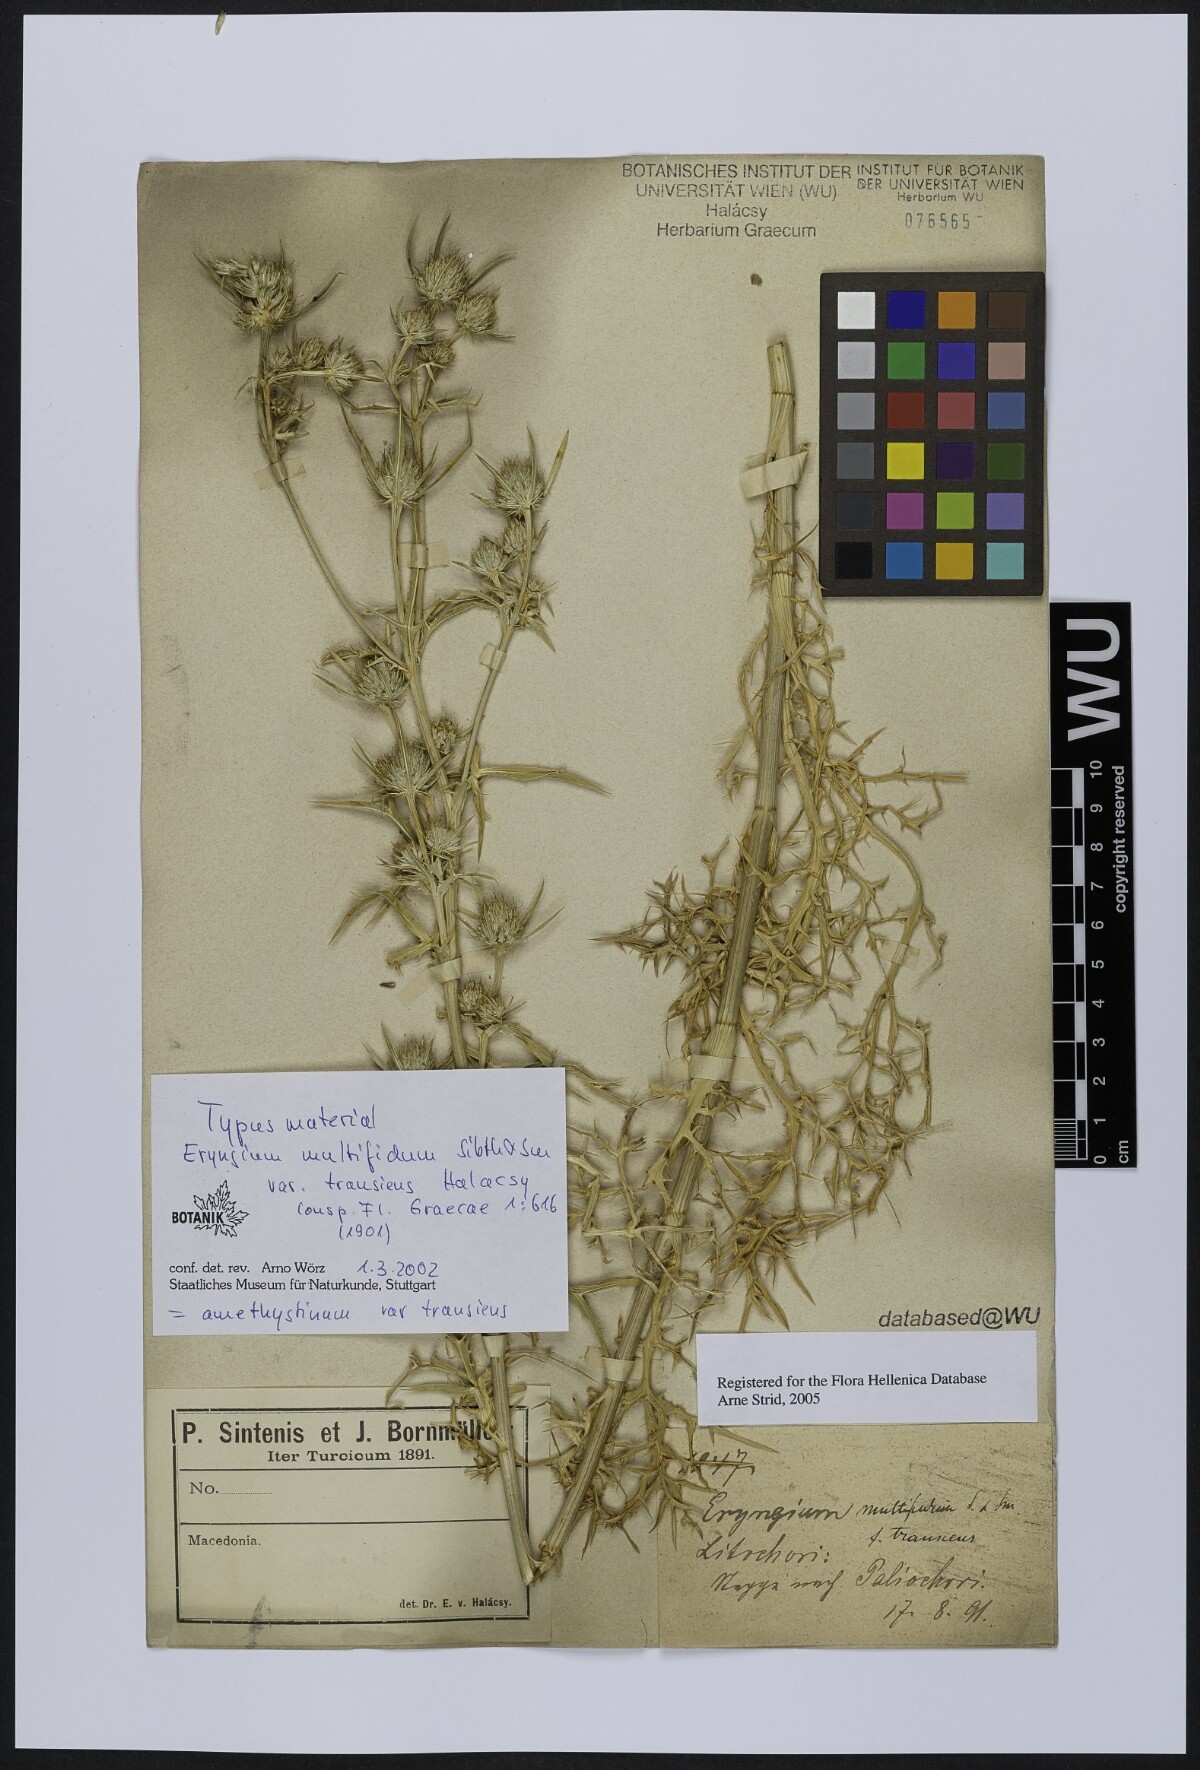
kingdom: Plantae
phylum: Tracheophyta
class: Magnoliopsida
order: Apiales
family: Apiaceae
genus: Eryngium
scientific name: Eryngium amethystinum
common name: Amethyst eryngo
